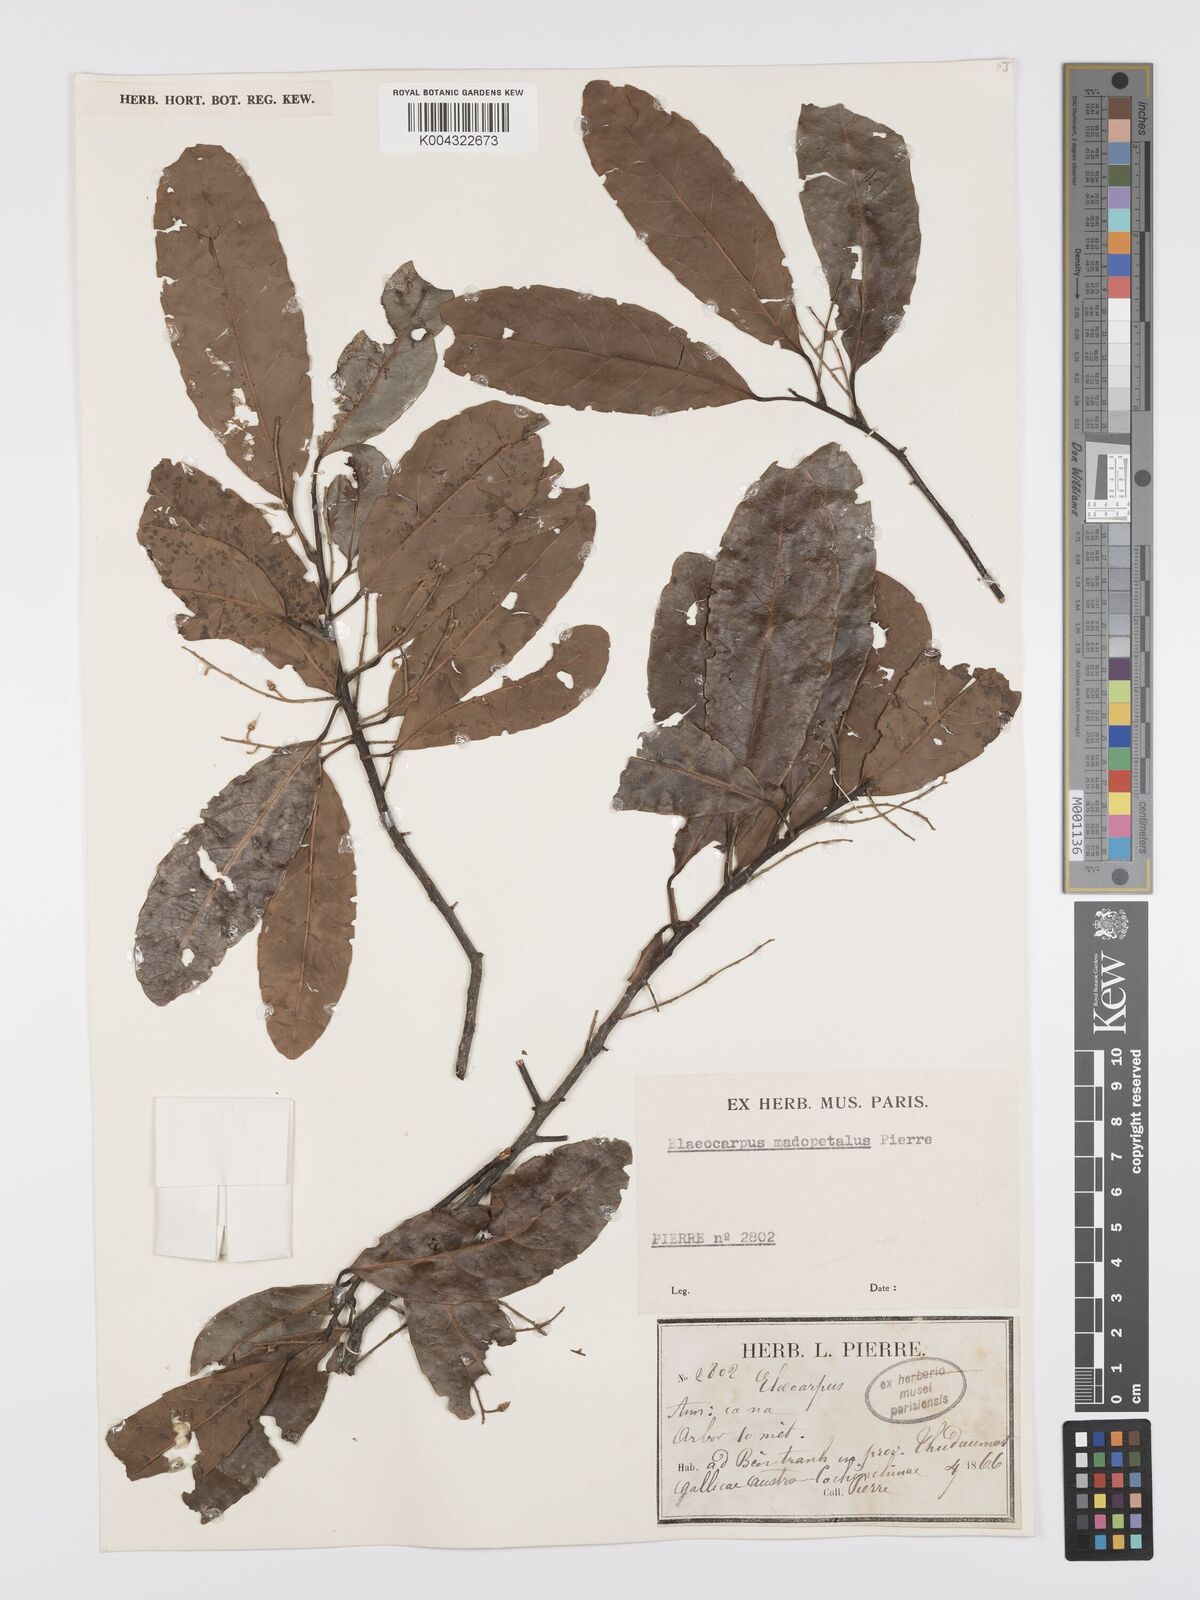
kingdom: Plantae
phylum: Tracheophyta
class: Magnoliopsida
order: Oxalidales
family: Elaeocarpaceae
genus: Elaeocarpus
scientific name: Elaeocarpus hygrophilus
